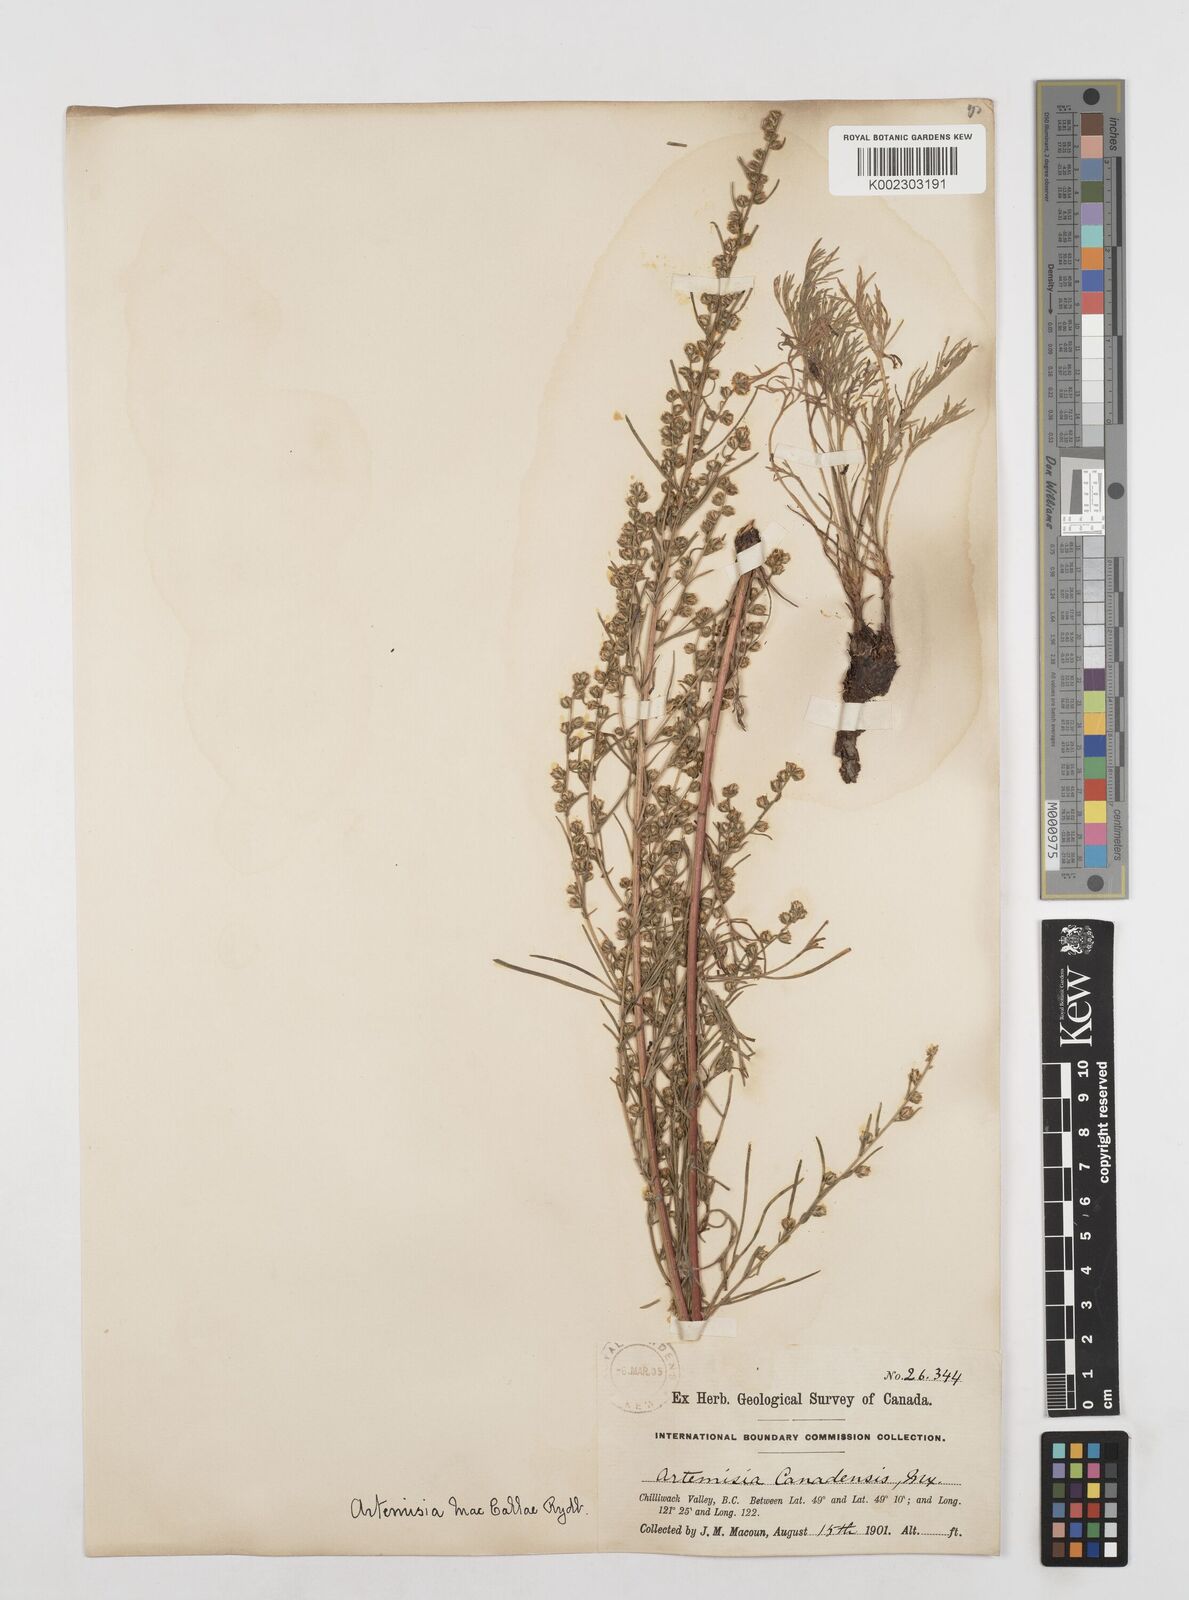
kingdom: Plantae
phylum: Tracheophyta
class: Magnoliopsida
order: Asterales
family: Asteraceae
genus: Artemisia
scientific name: Artemisia campestris
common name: Field wormwood
